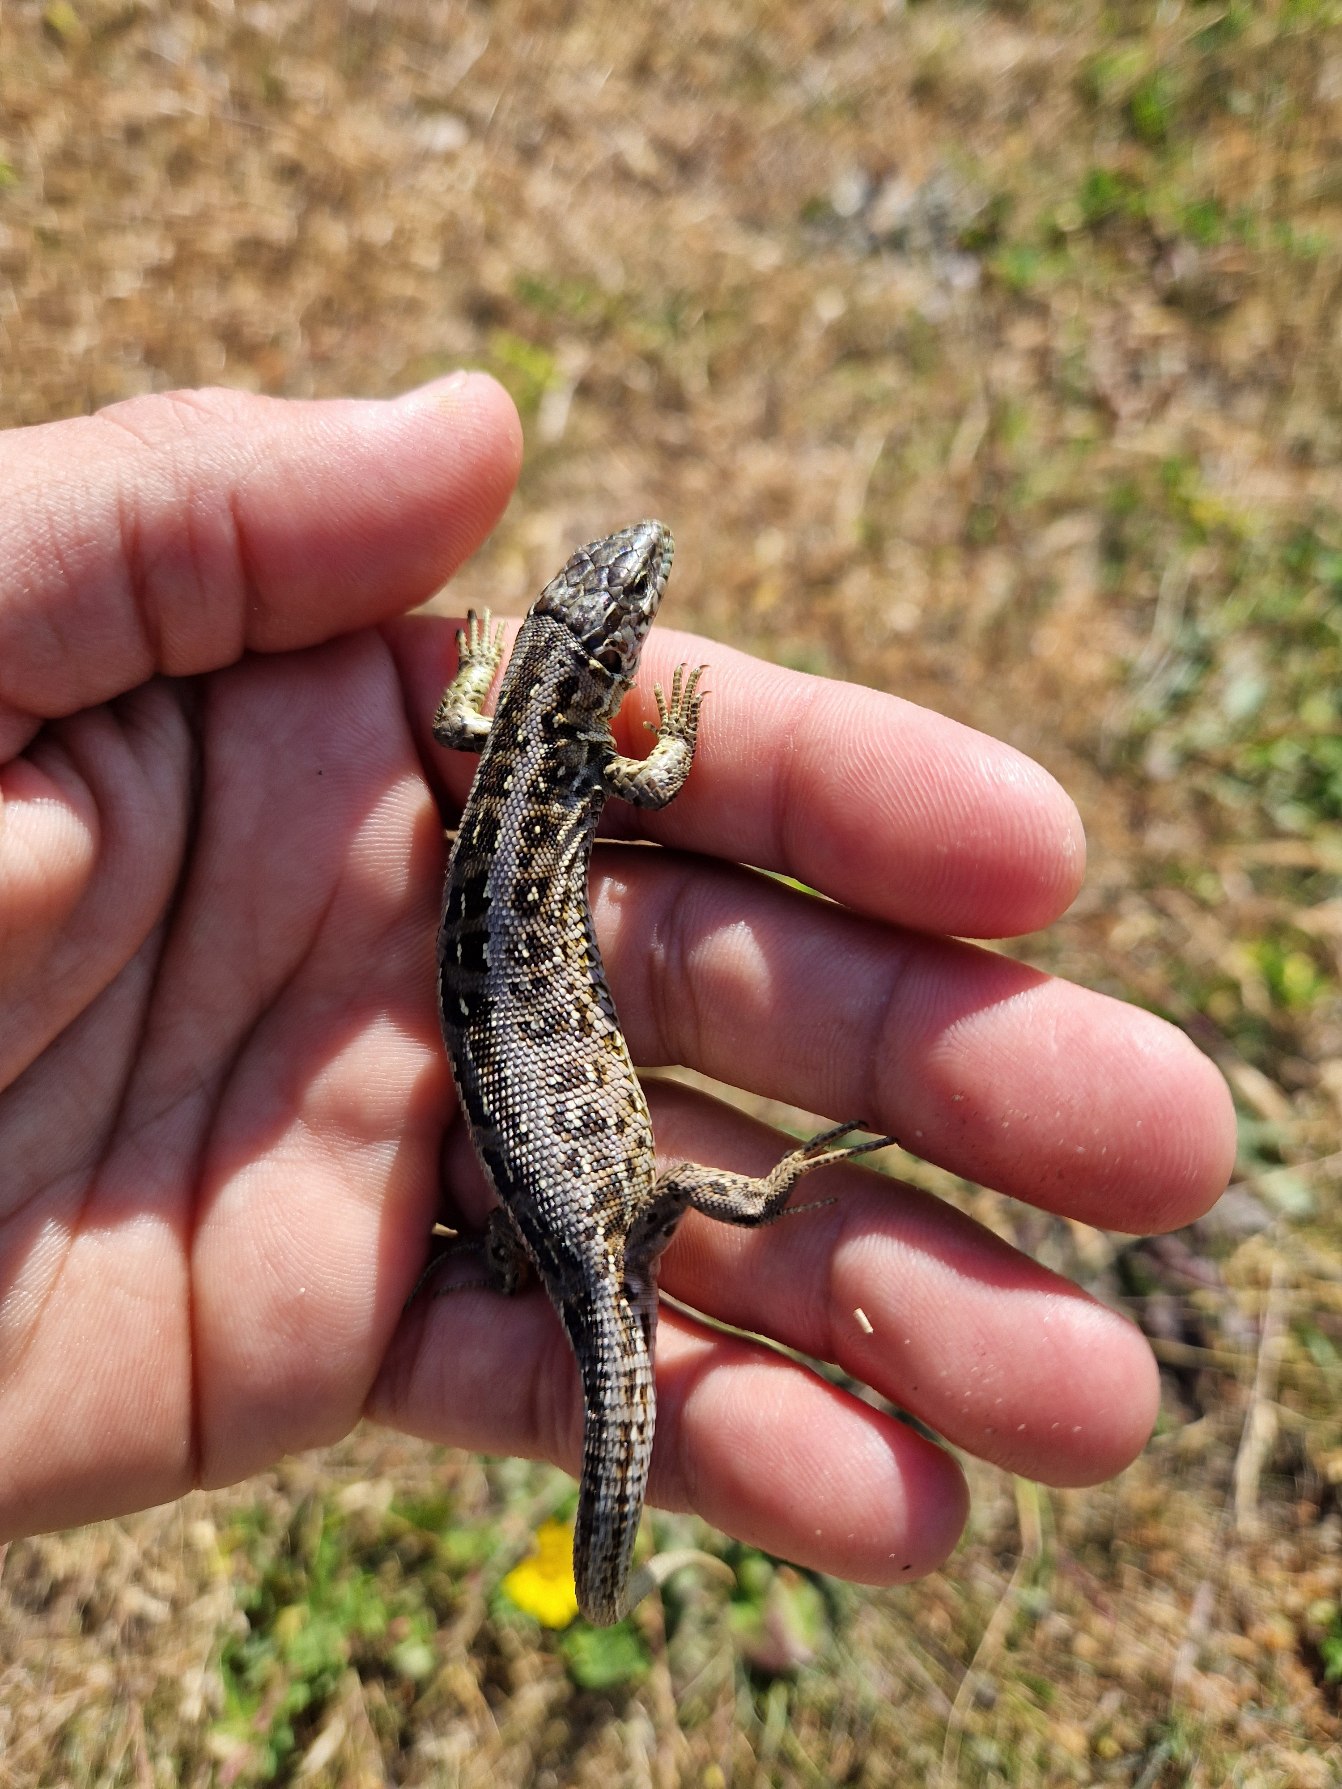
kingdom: Animalia
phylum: Chordata
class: Squamata
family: Lacertidae
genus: Lacerta
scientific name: Lacerta agilis
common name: Markfirben
